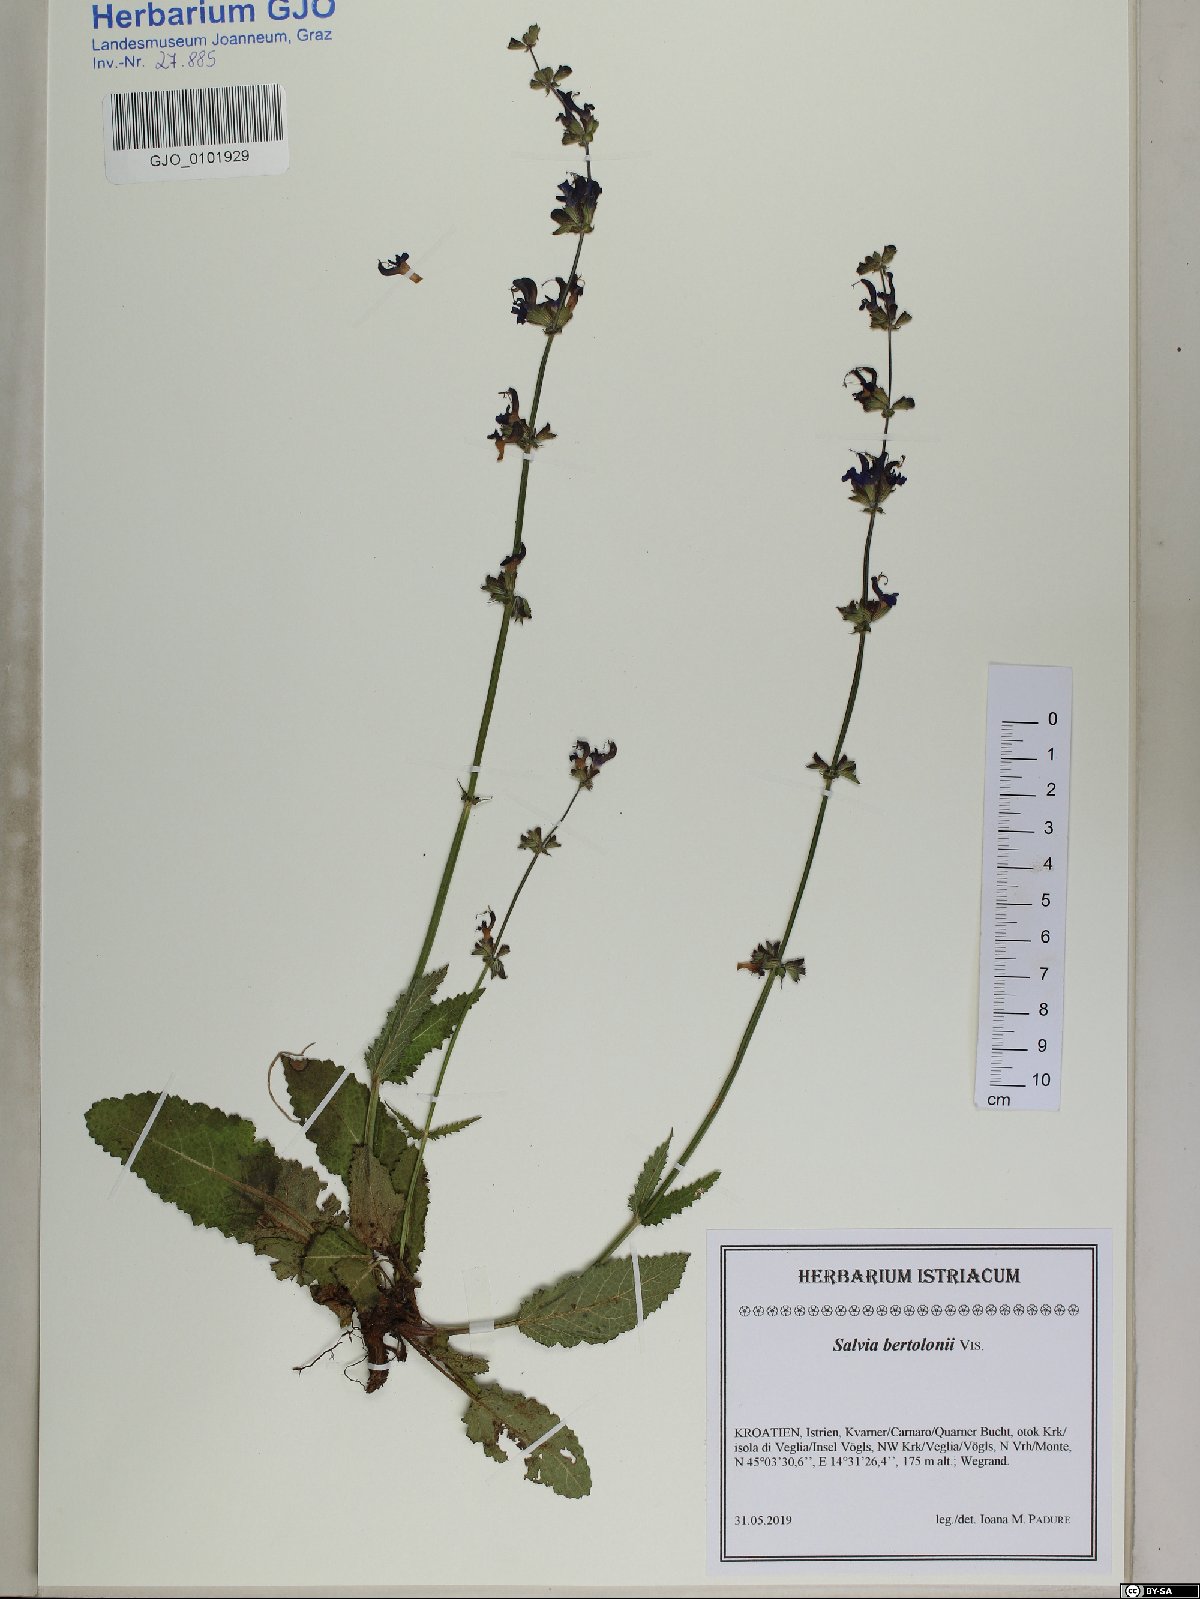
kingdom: Plantae
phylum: Tracheophyta
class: Magnoliopsida
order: Lamiales
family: Lamiaceae
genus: Salvia
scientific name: Salvia pratensis
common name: Meadow sage
